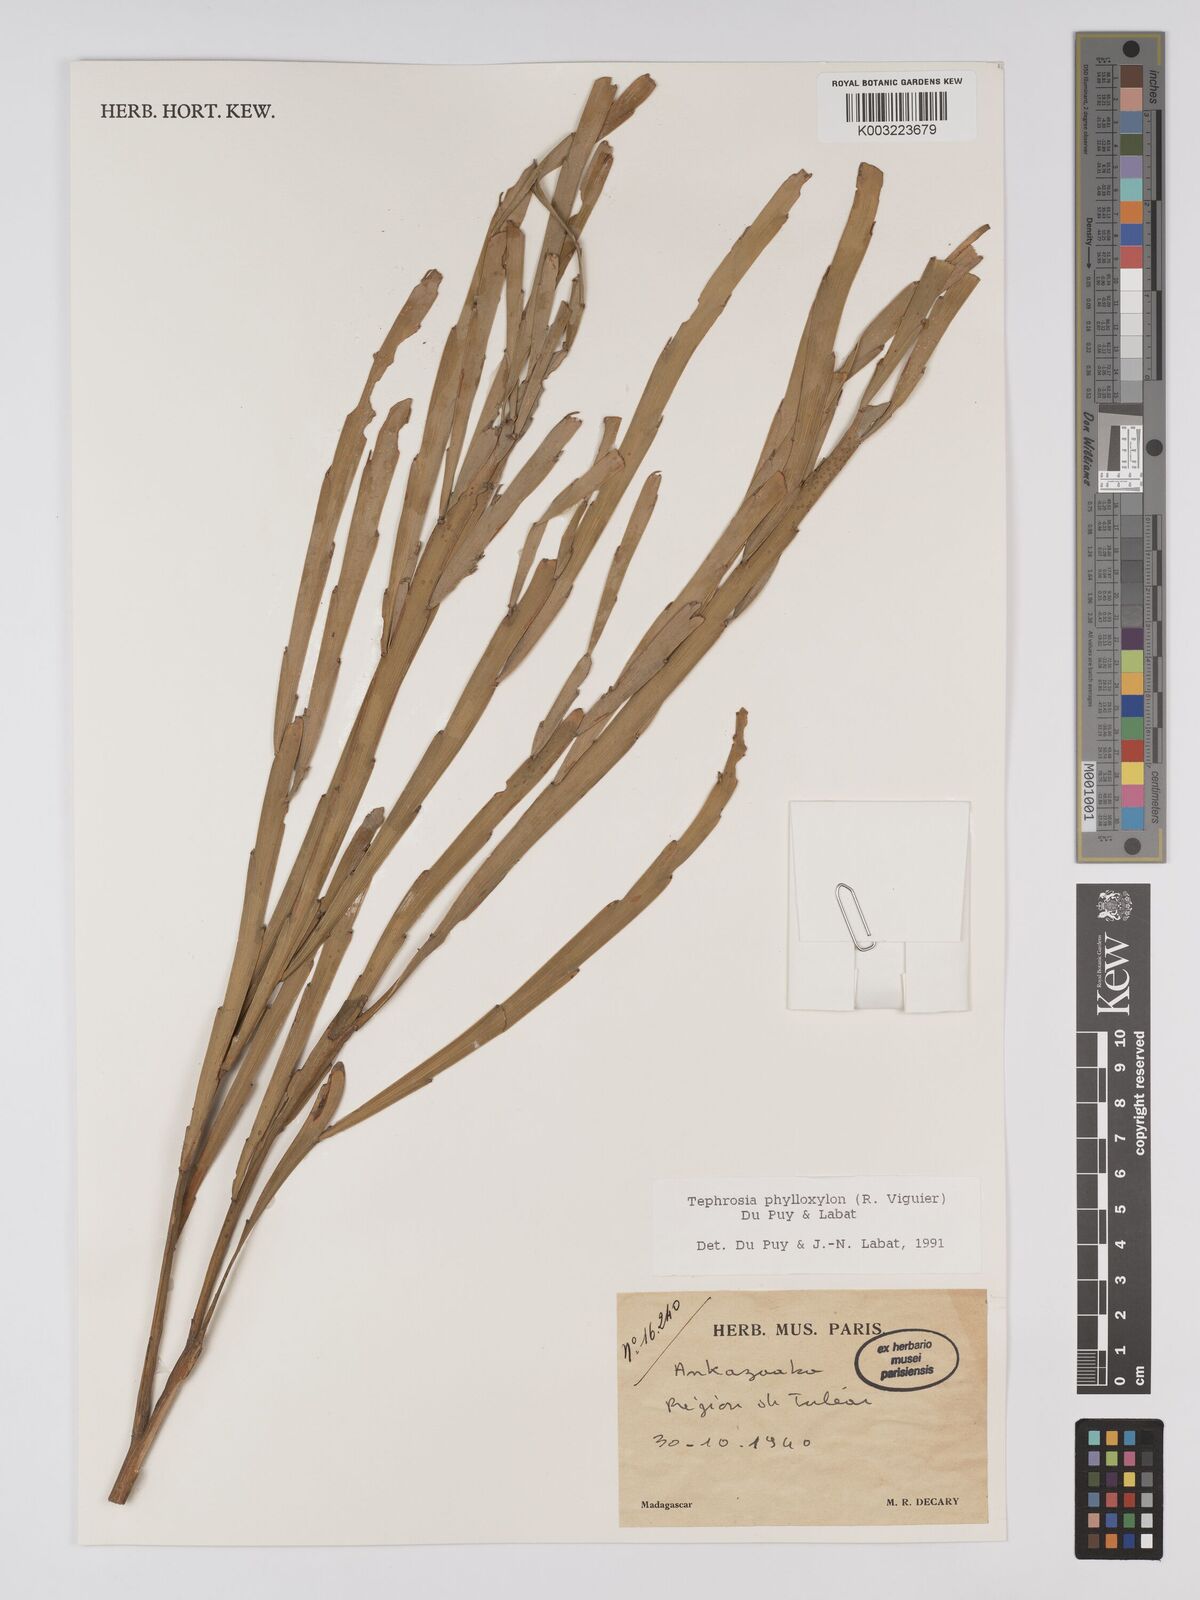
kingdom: Plantae
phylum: Tracheophyta
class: Magnoliopsida
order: Fabales
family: Fabaceae
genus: Tephrosia
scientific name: Tephrosia phylloxylon
